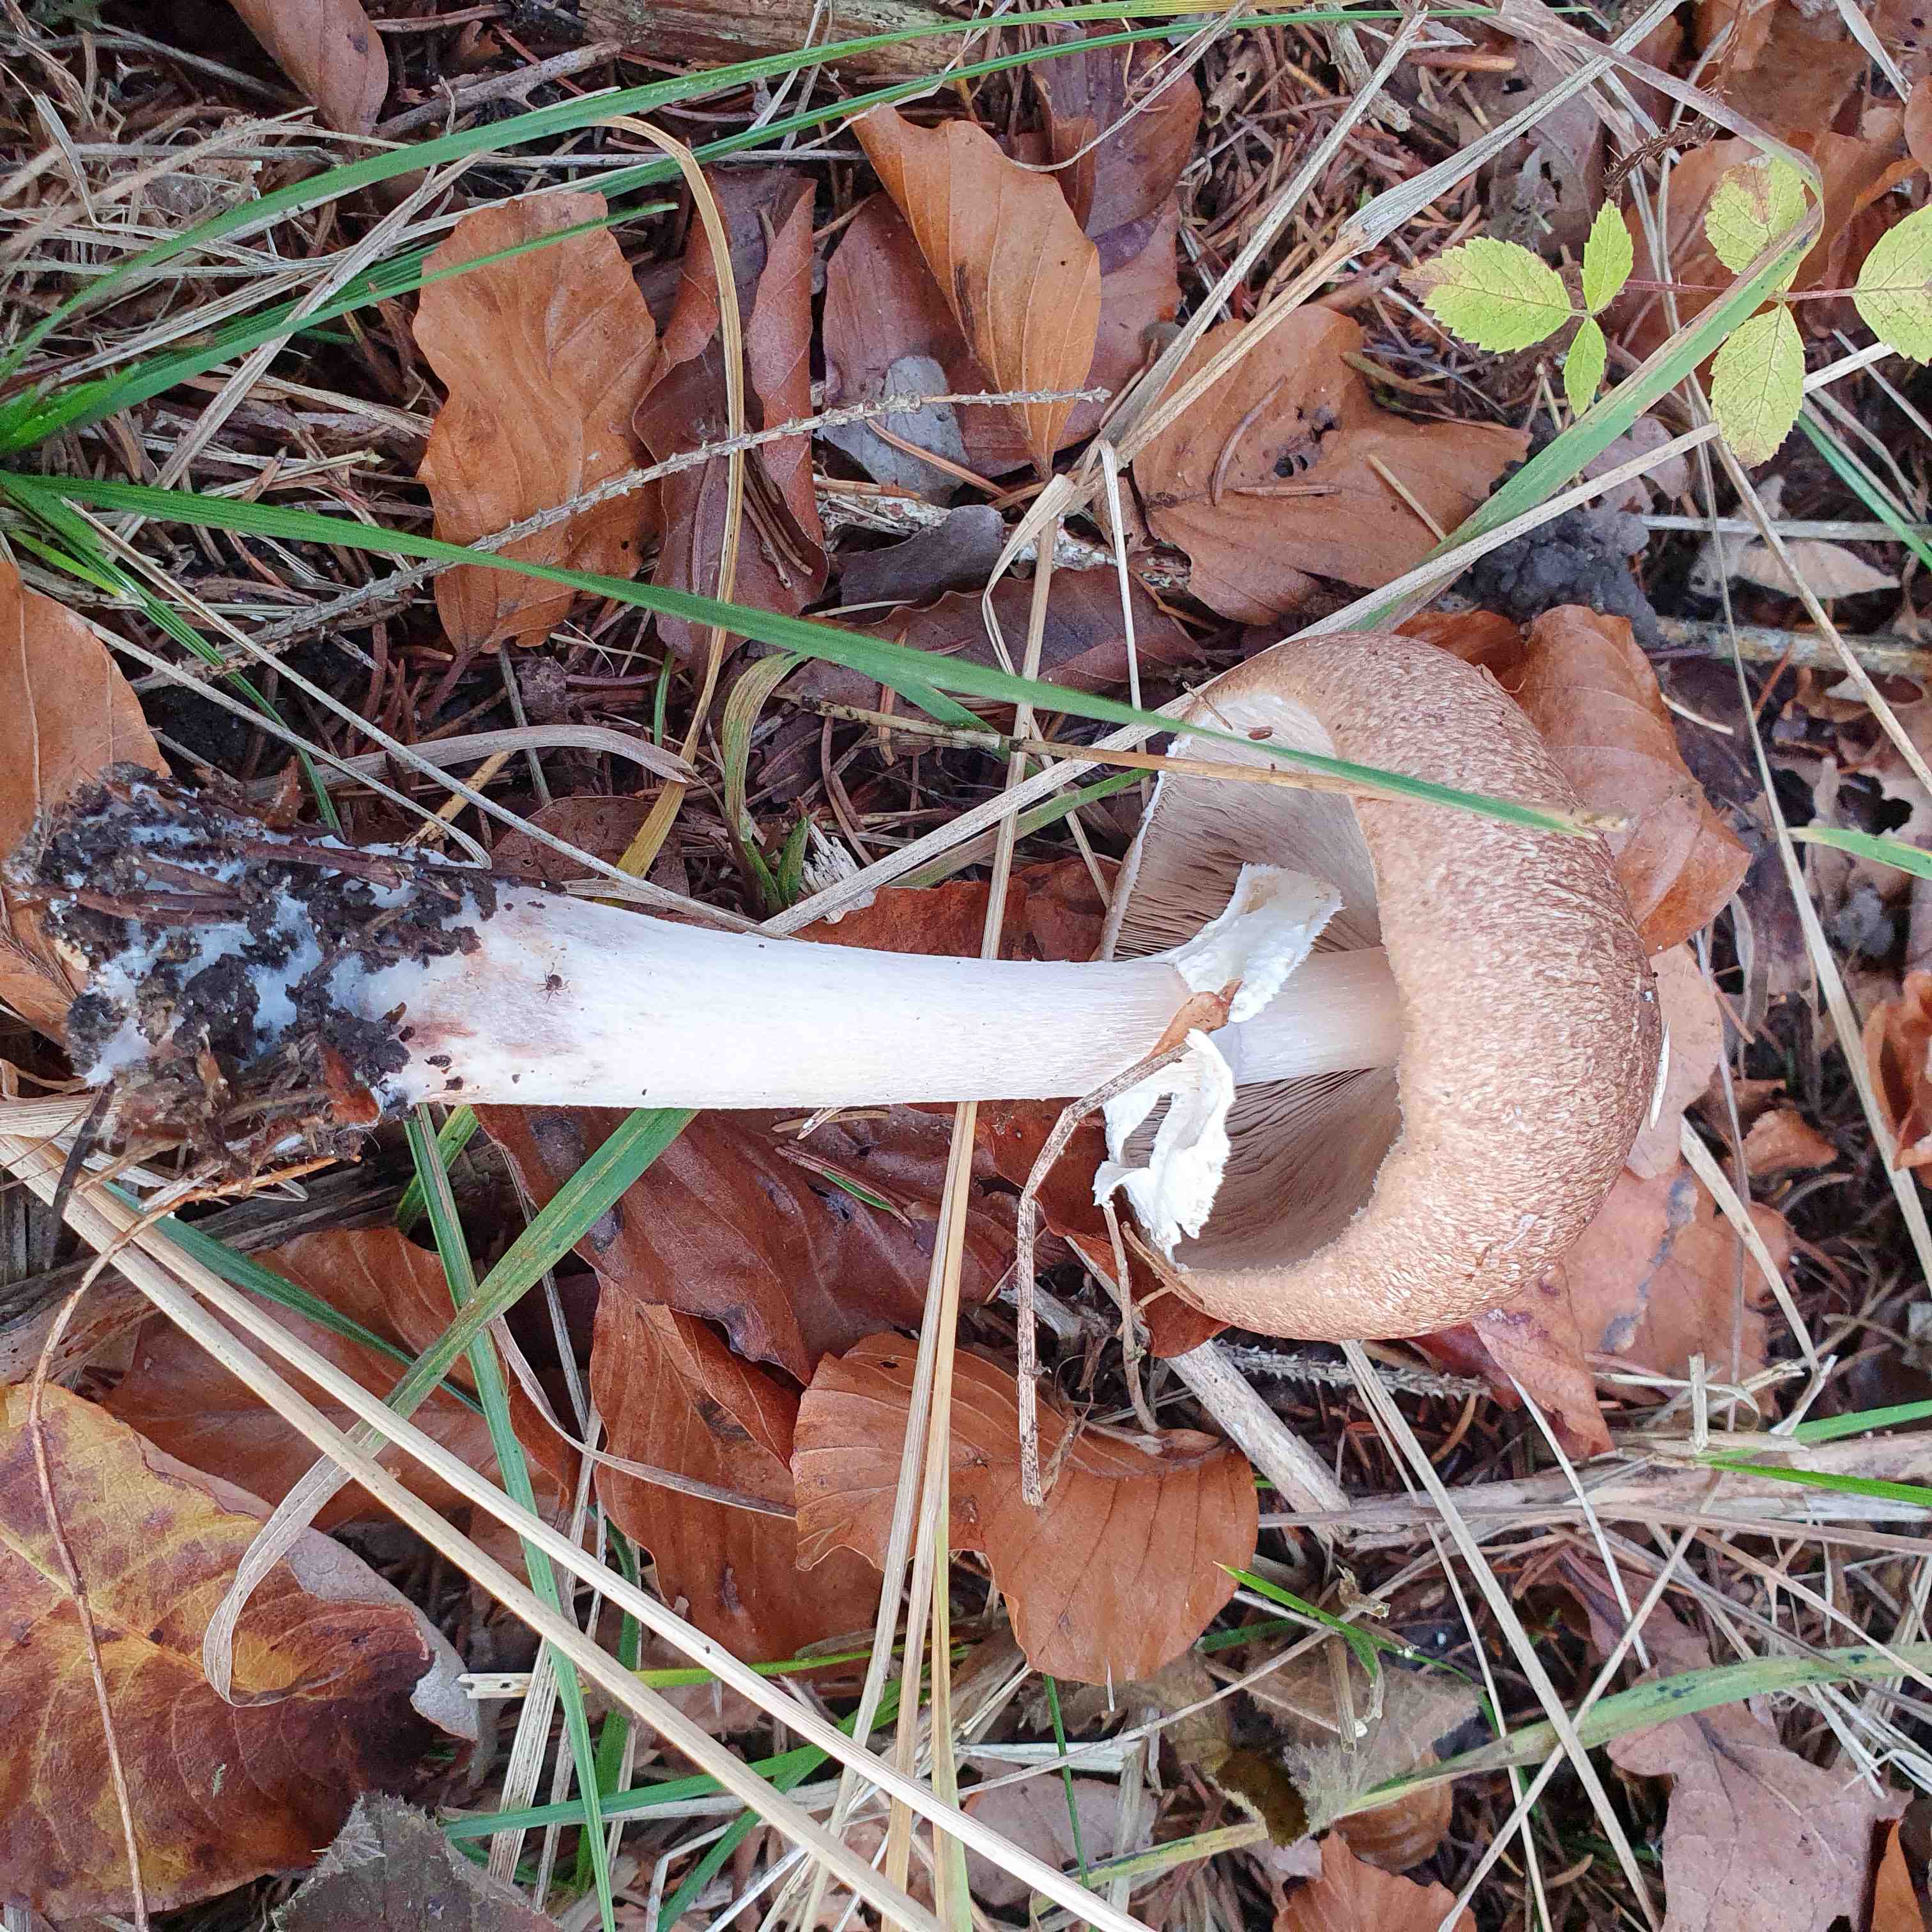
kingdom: Fungi
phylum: Basidiomycota
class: Agaricomycetes
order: Agaricales
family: Agaricaceae
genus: Agaricus
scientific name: Agaricus impudicus
